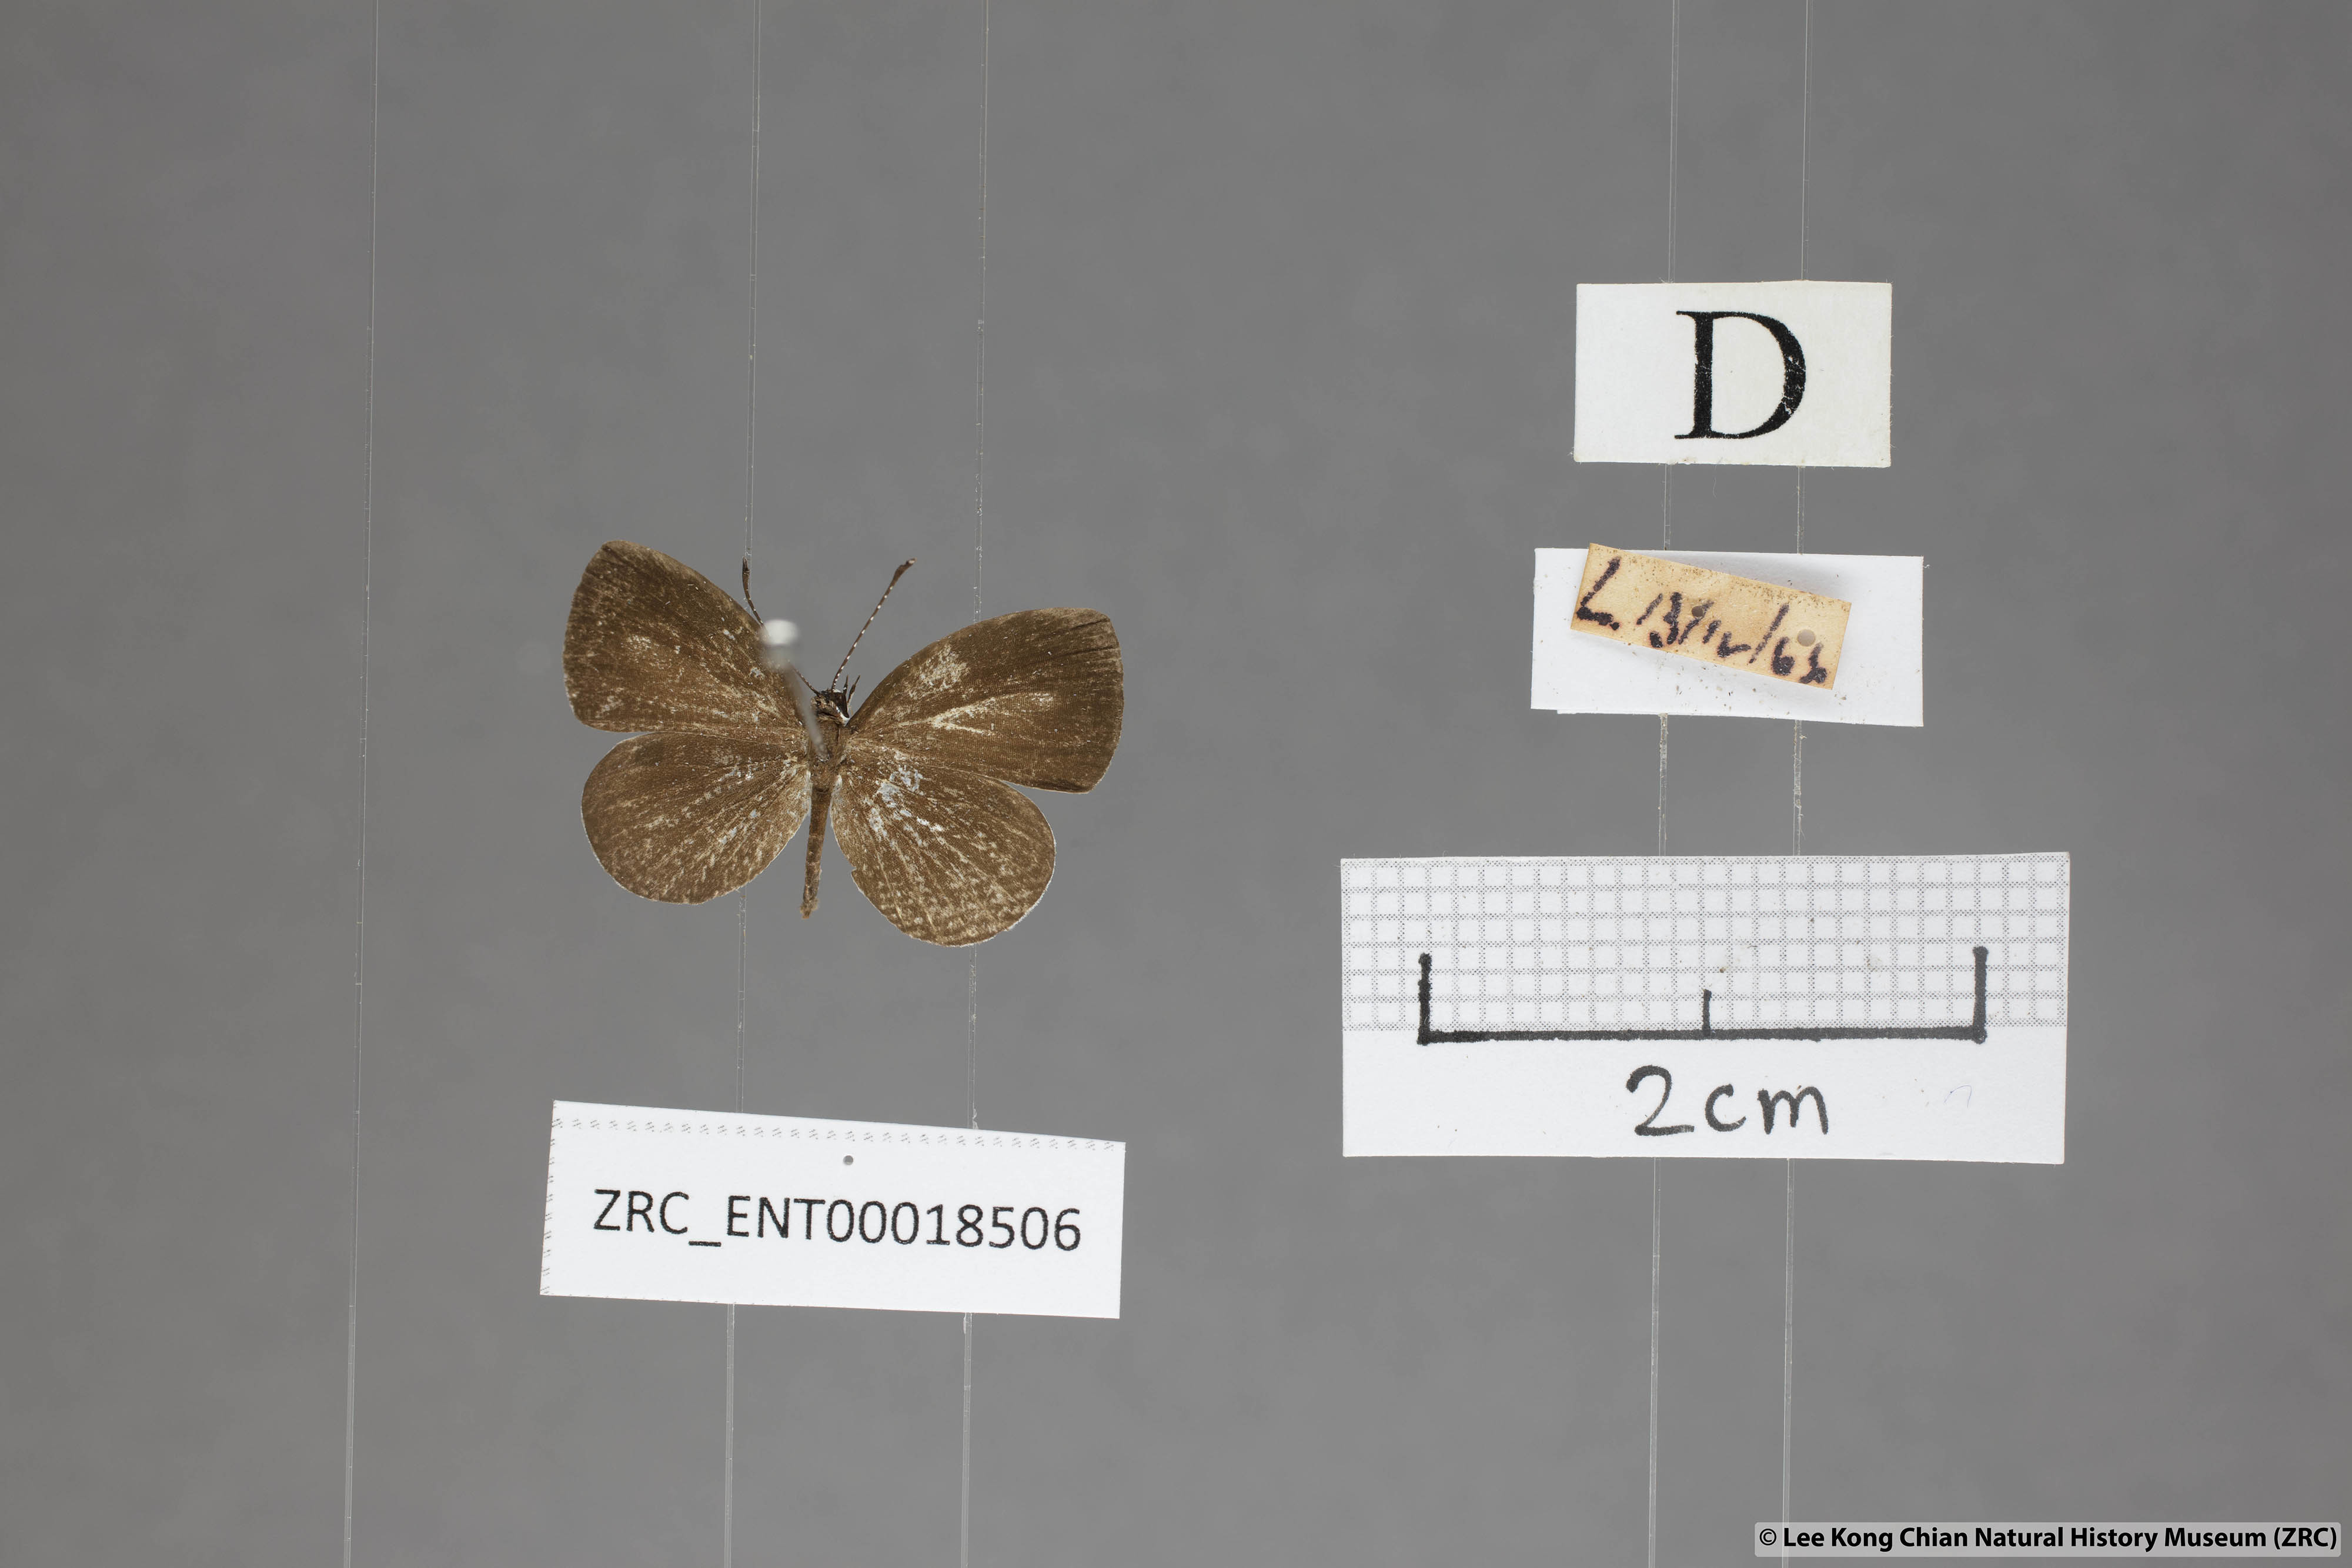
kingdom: Animalia
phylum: Arthropoda
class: Insecta
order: Lepidoptera
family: Lycaenidae
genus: Neopithecops
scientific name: Neopithecops zalmora
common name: Quaker
